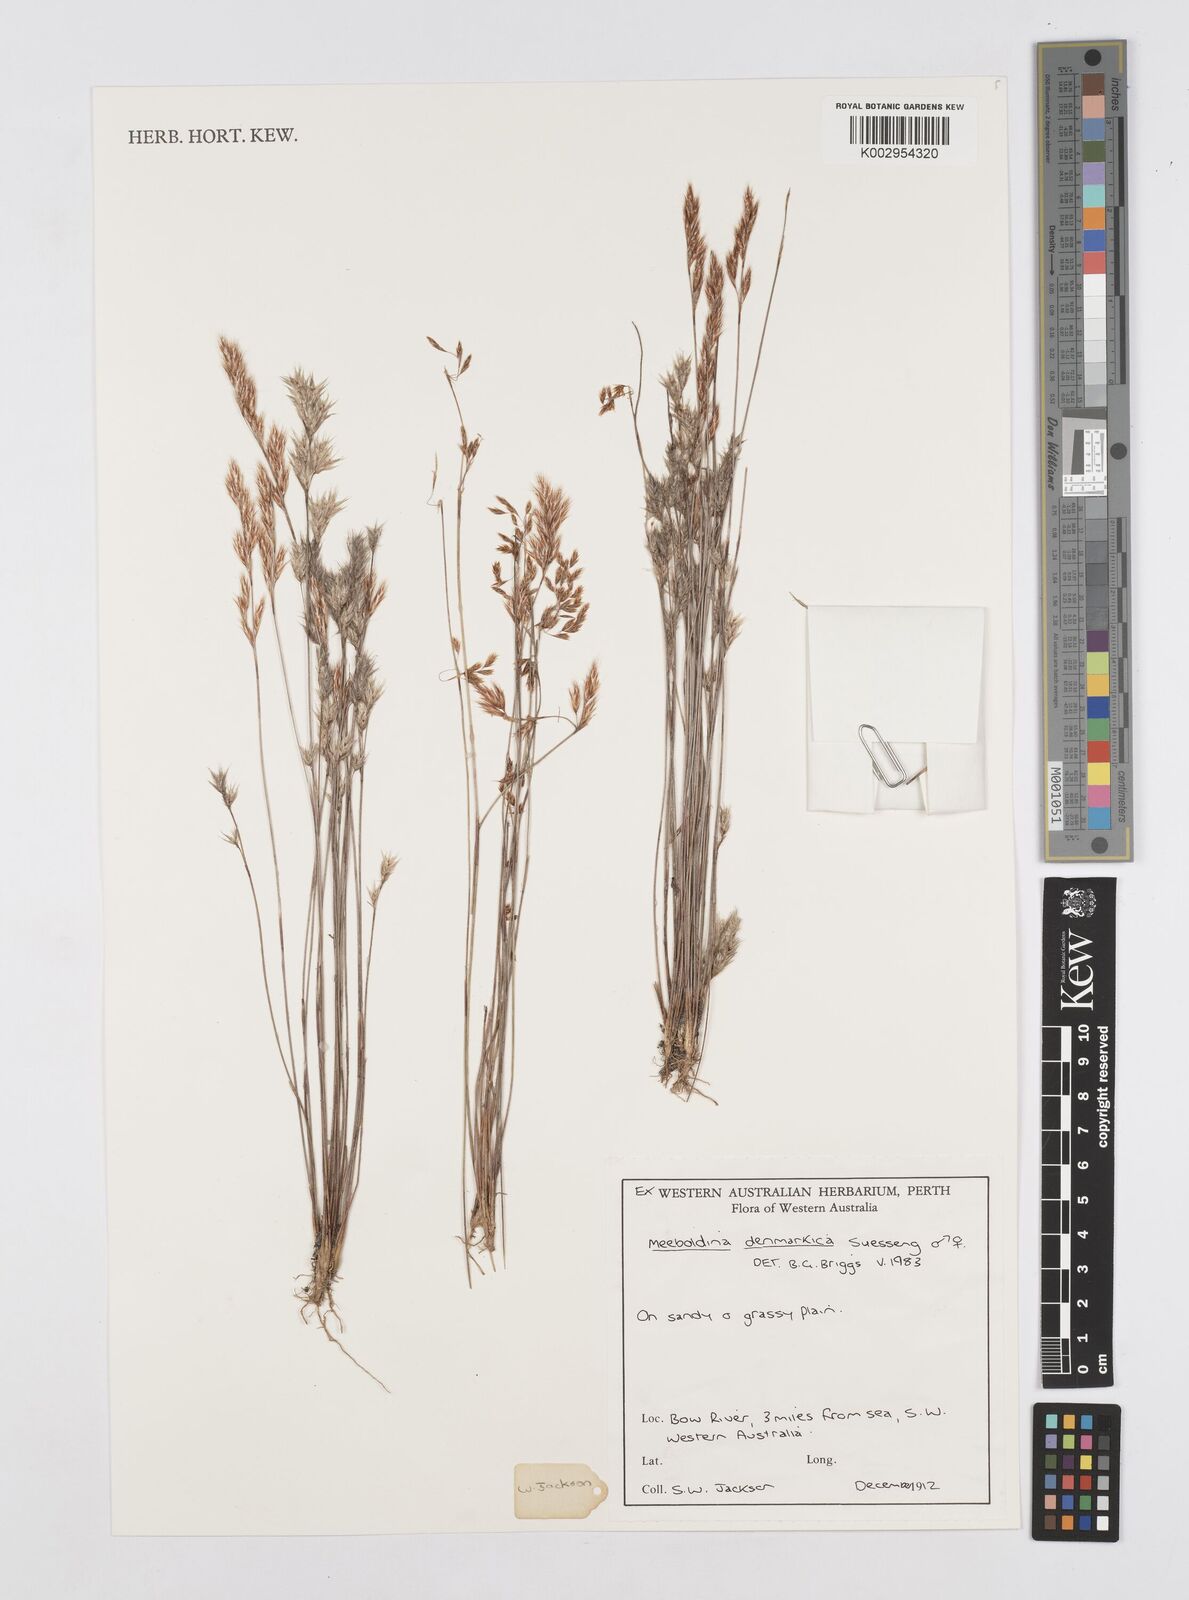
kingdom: Plantae
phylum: Tracheophyta
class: Liliopsida
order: Poales
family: Restionaceae
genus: Leptocarpus
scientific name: Leptocarpus denmarkicus
